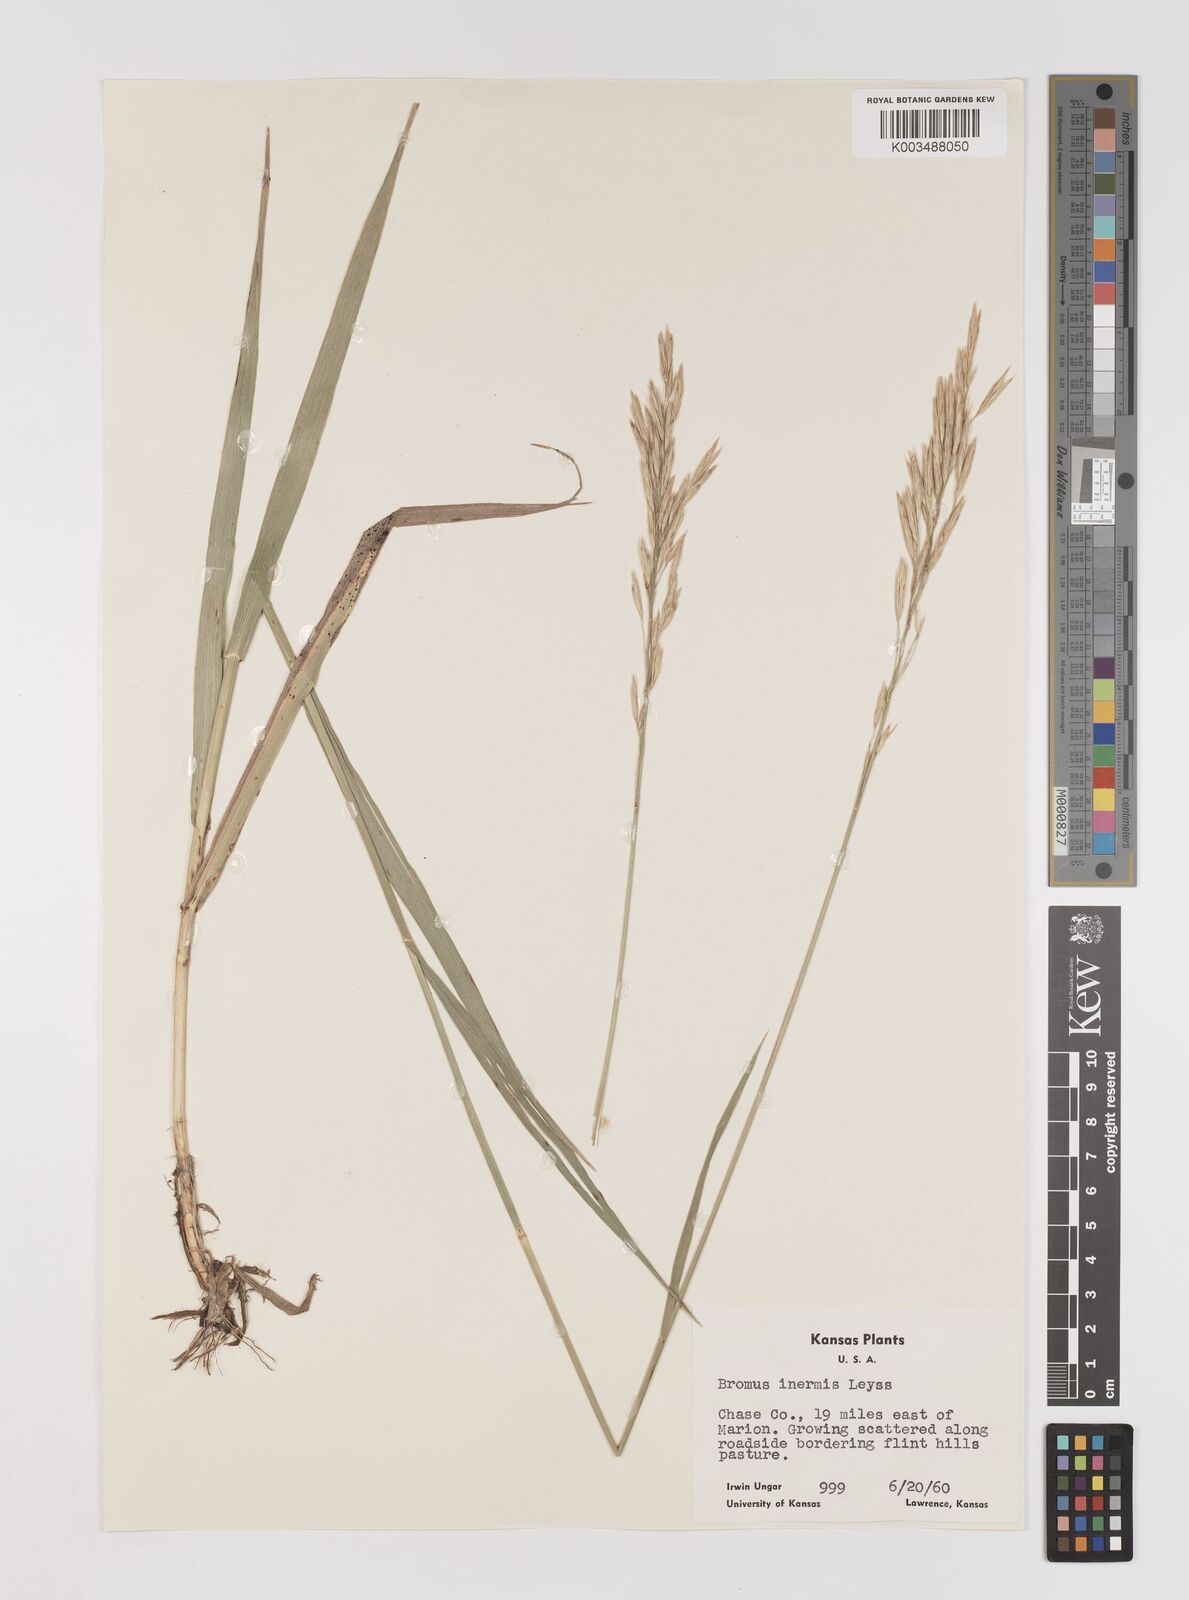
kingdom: Plantae
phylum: Tracheophyta
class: Liliopsida
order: Poales
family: Poaceae
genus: Bromus
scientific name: Bromus inermis
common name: Smooth brome
